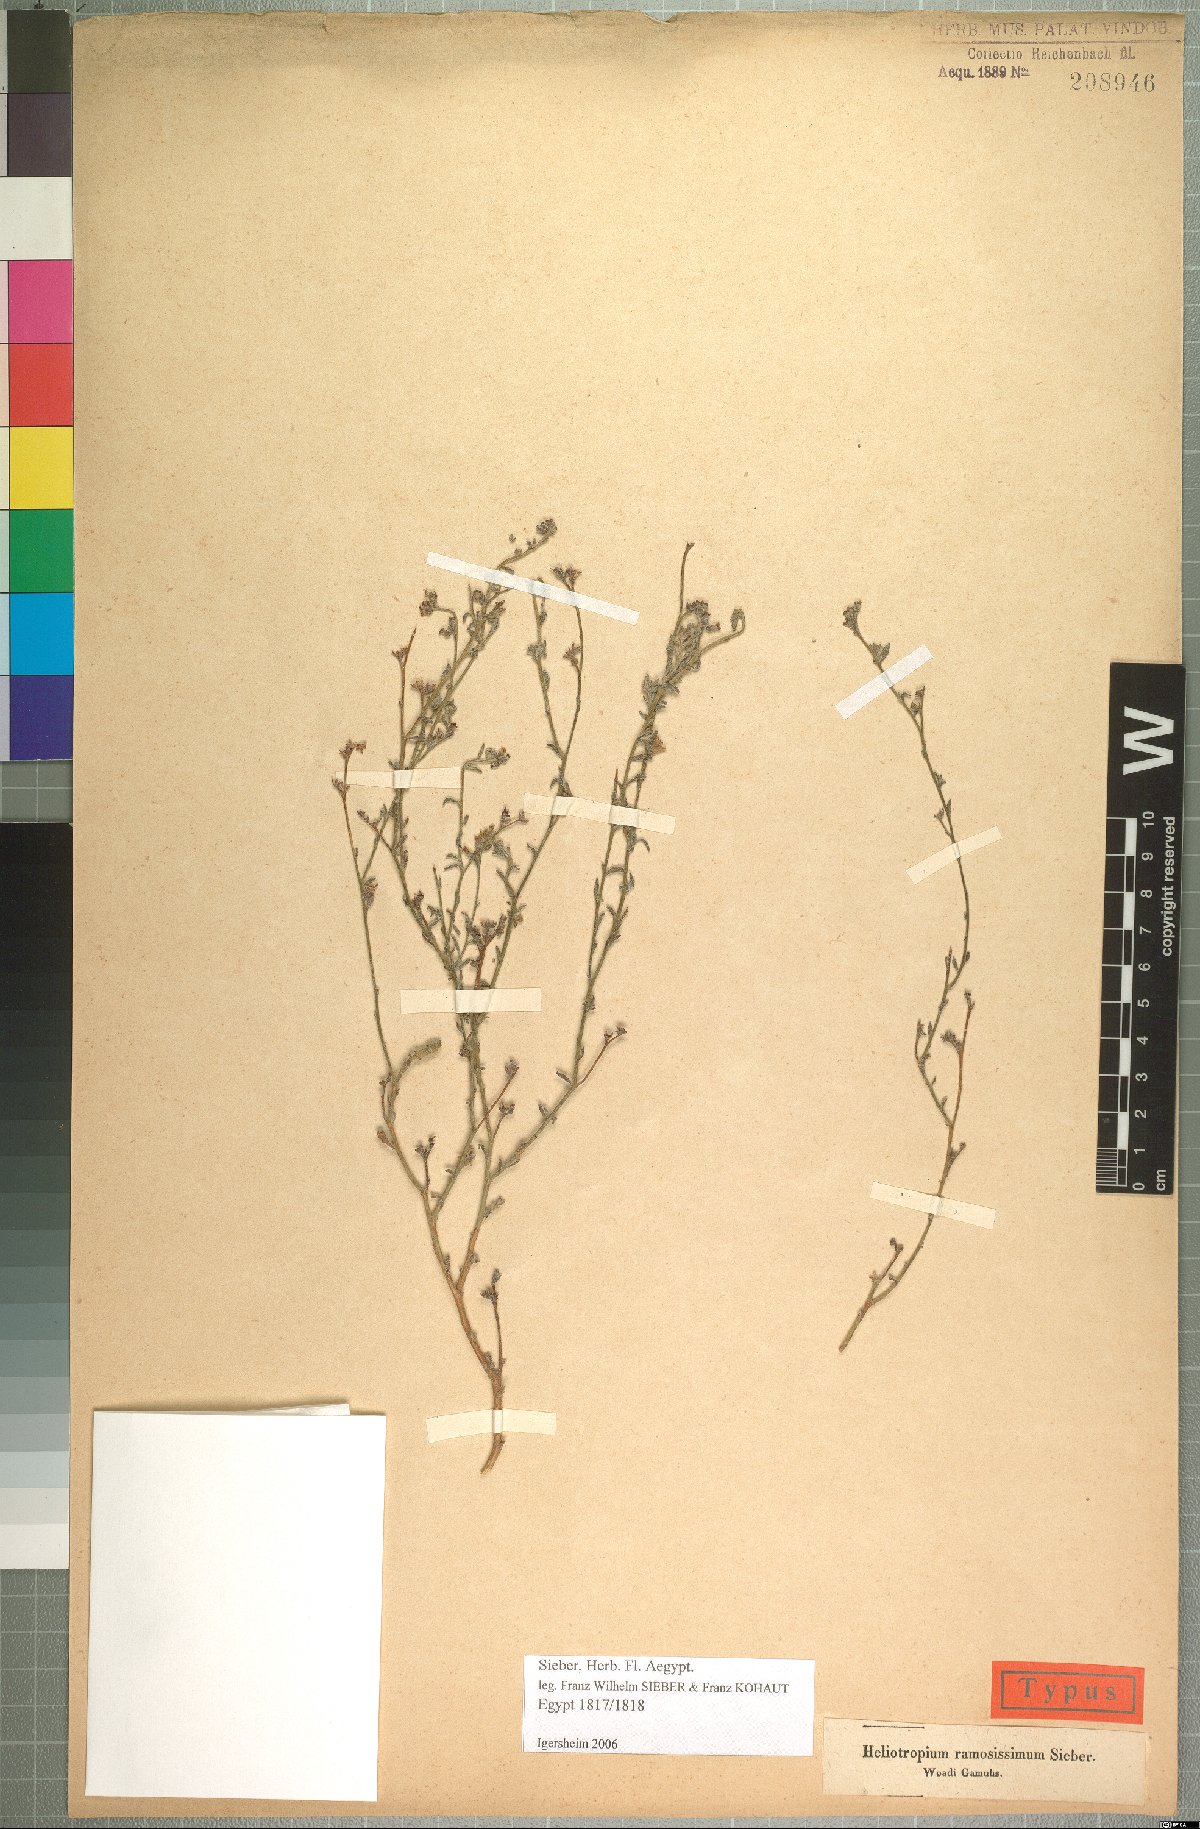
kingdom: Plantae
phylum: Tracheophyta
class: Magnoliopsida
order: Boraginales
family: Heliotropiaceae
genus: Heliotropium
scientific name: Heliotropium bacciferum
